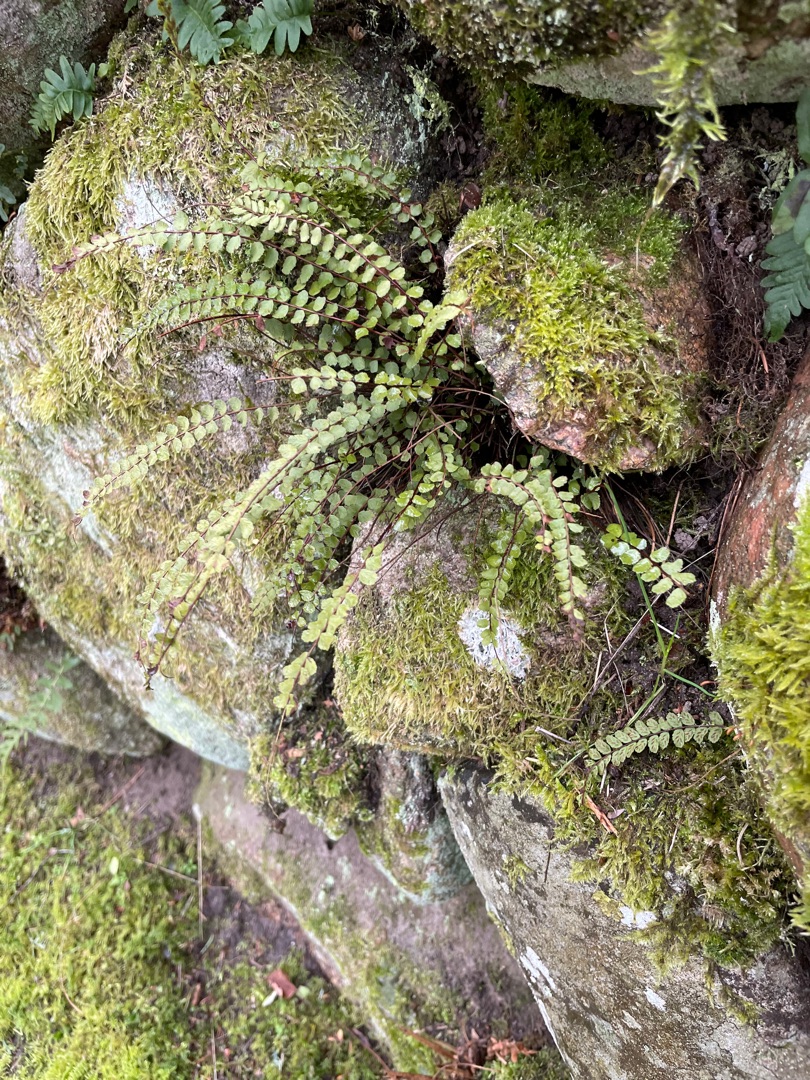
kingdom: Plantae
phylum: Tracheophyta
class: Polypodiopsida
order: Polypodiales
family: Aspleniaceae
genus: Asplenium
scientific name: Asplenium trichomanes
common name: Rundfinnet radeløv
